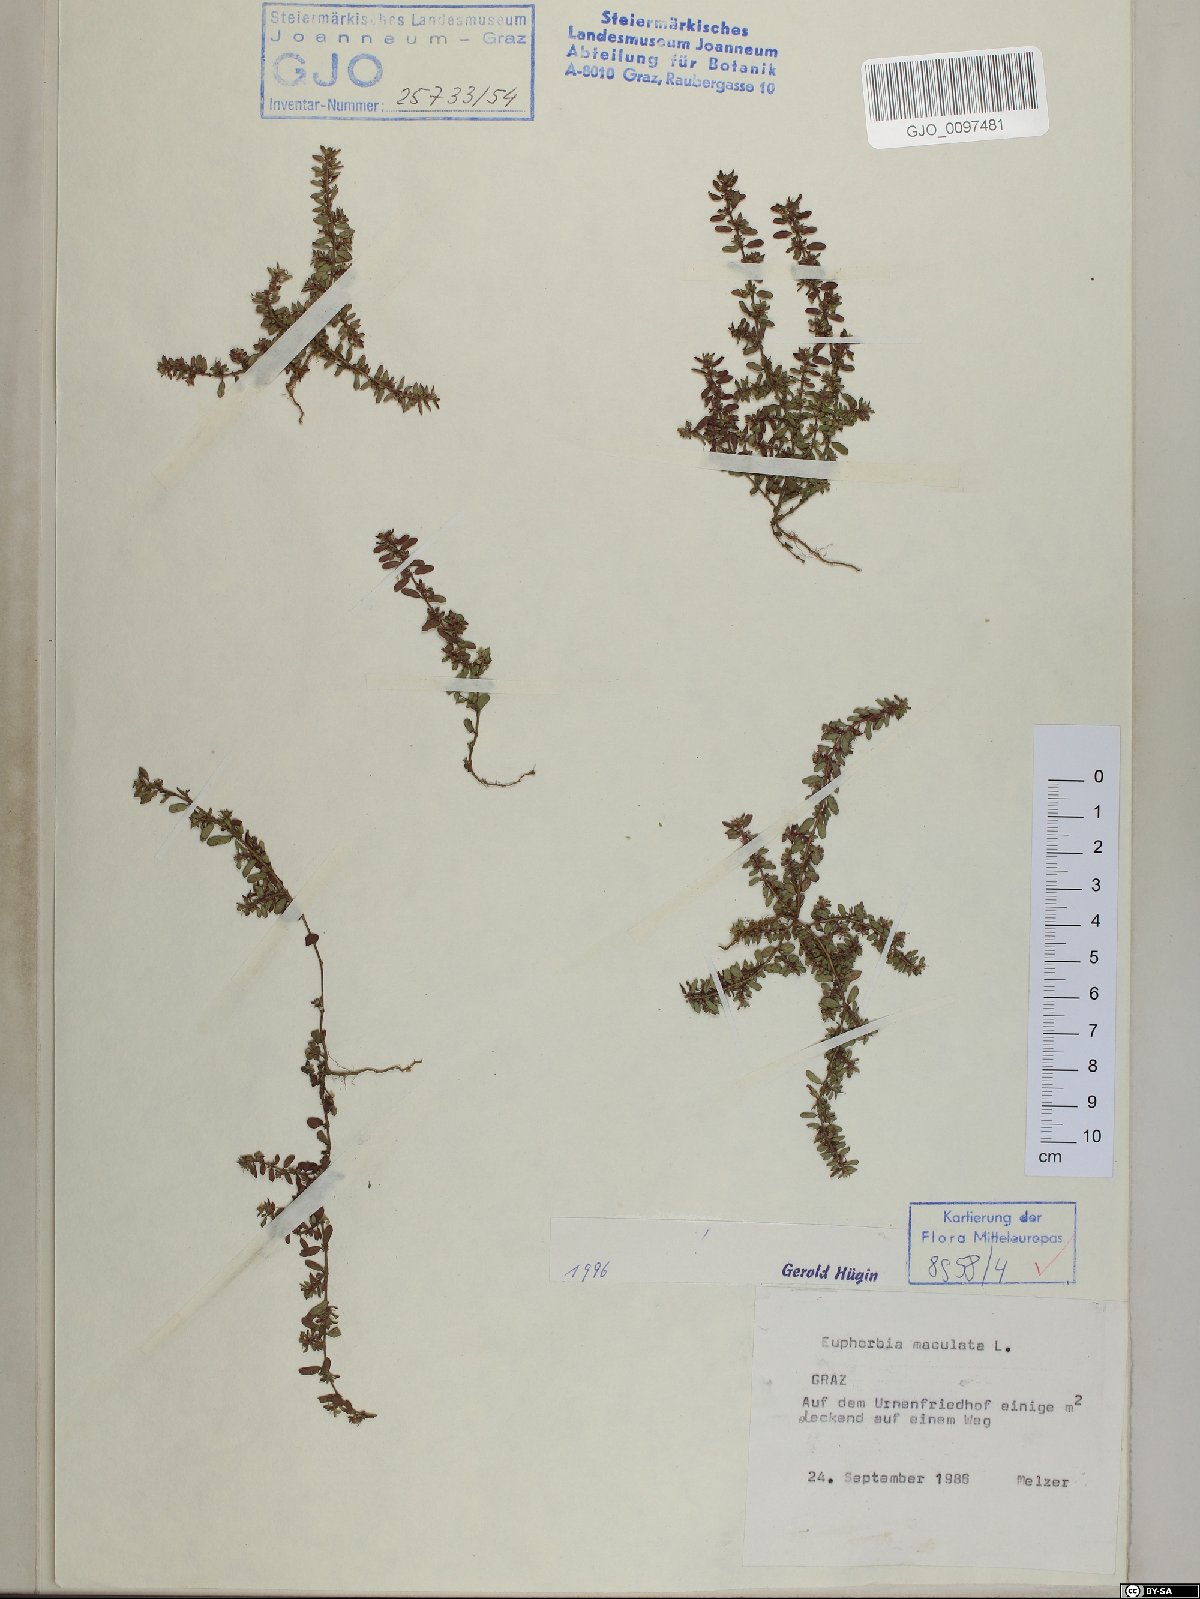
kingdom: Plantae
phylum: Tracheophyta
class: Magnoliopsida
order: Malpighiales
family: Euphorbiaceae
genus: Euphorbia
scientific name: Euphorbia maculata
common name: Spotted spurge
